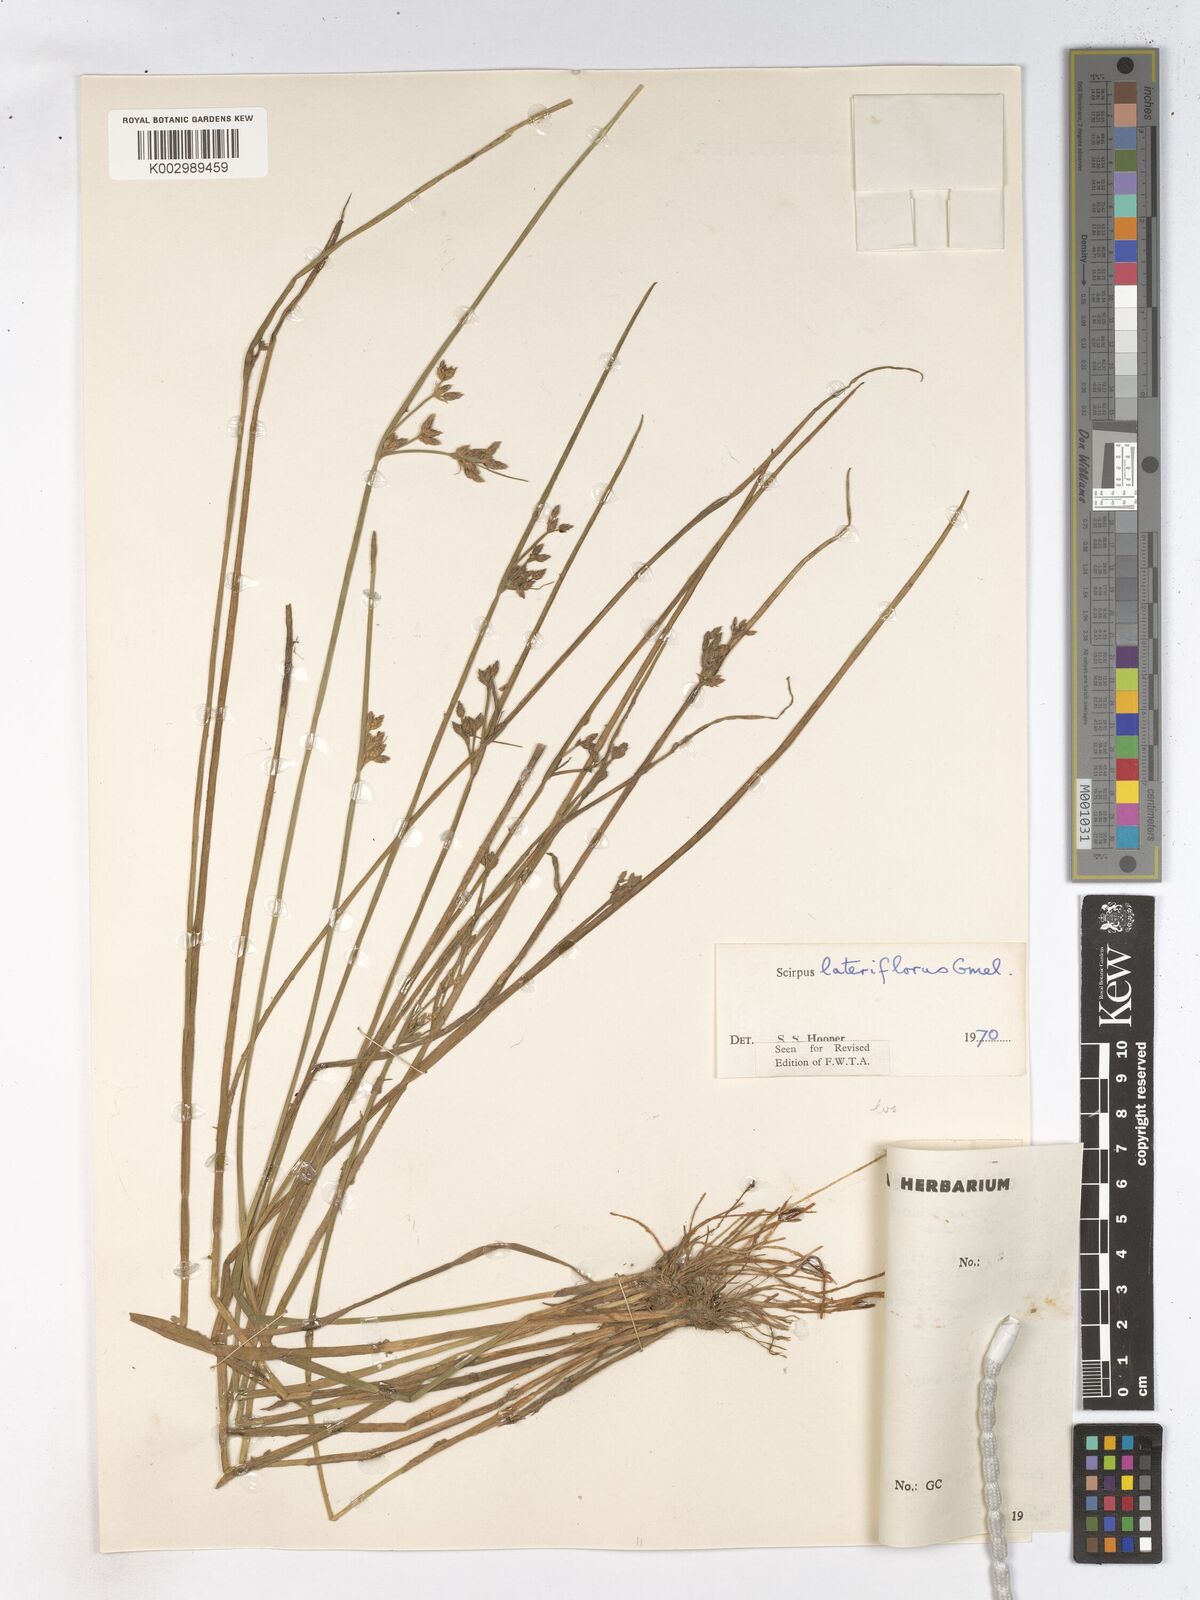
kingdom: Plantae
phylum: Tracheophyta
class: Liliopsida
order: Poales
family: Cyperaceae
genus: Schoenoplectiella
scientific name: Schoenoplectiella lateriflora
